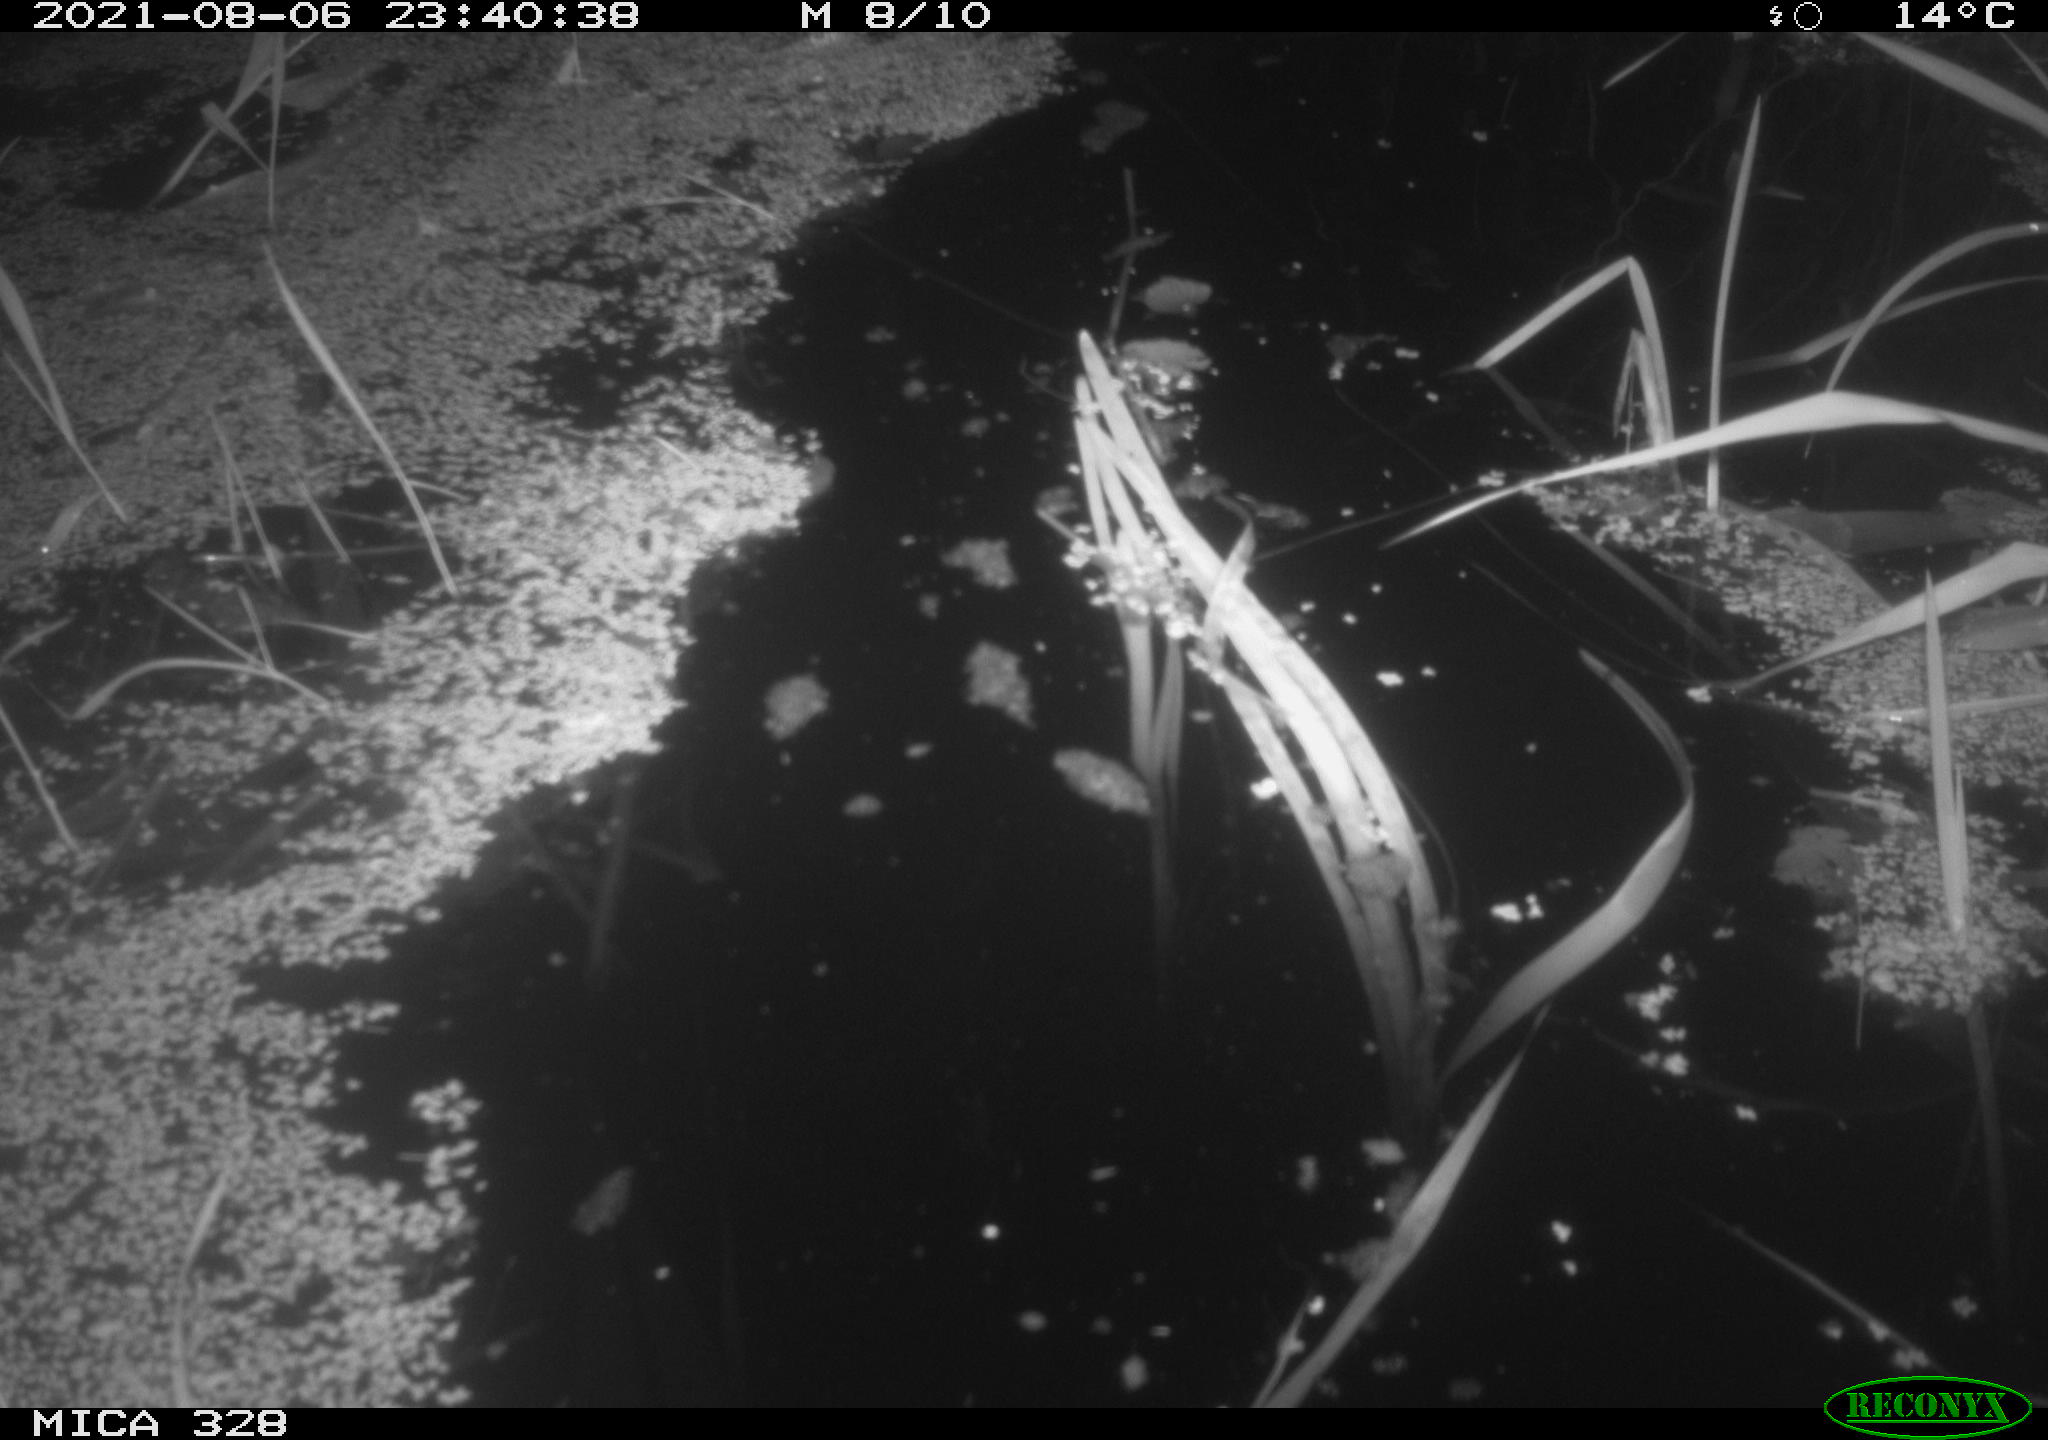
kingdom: Animalia
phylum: Chordata
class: Mammalia
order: Rodentia
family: Cricetidae
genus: Ondatra
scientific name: Ondatra zibethicus
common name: Muskrat
